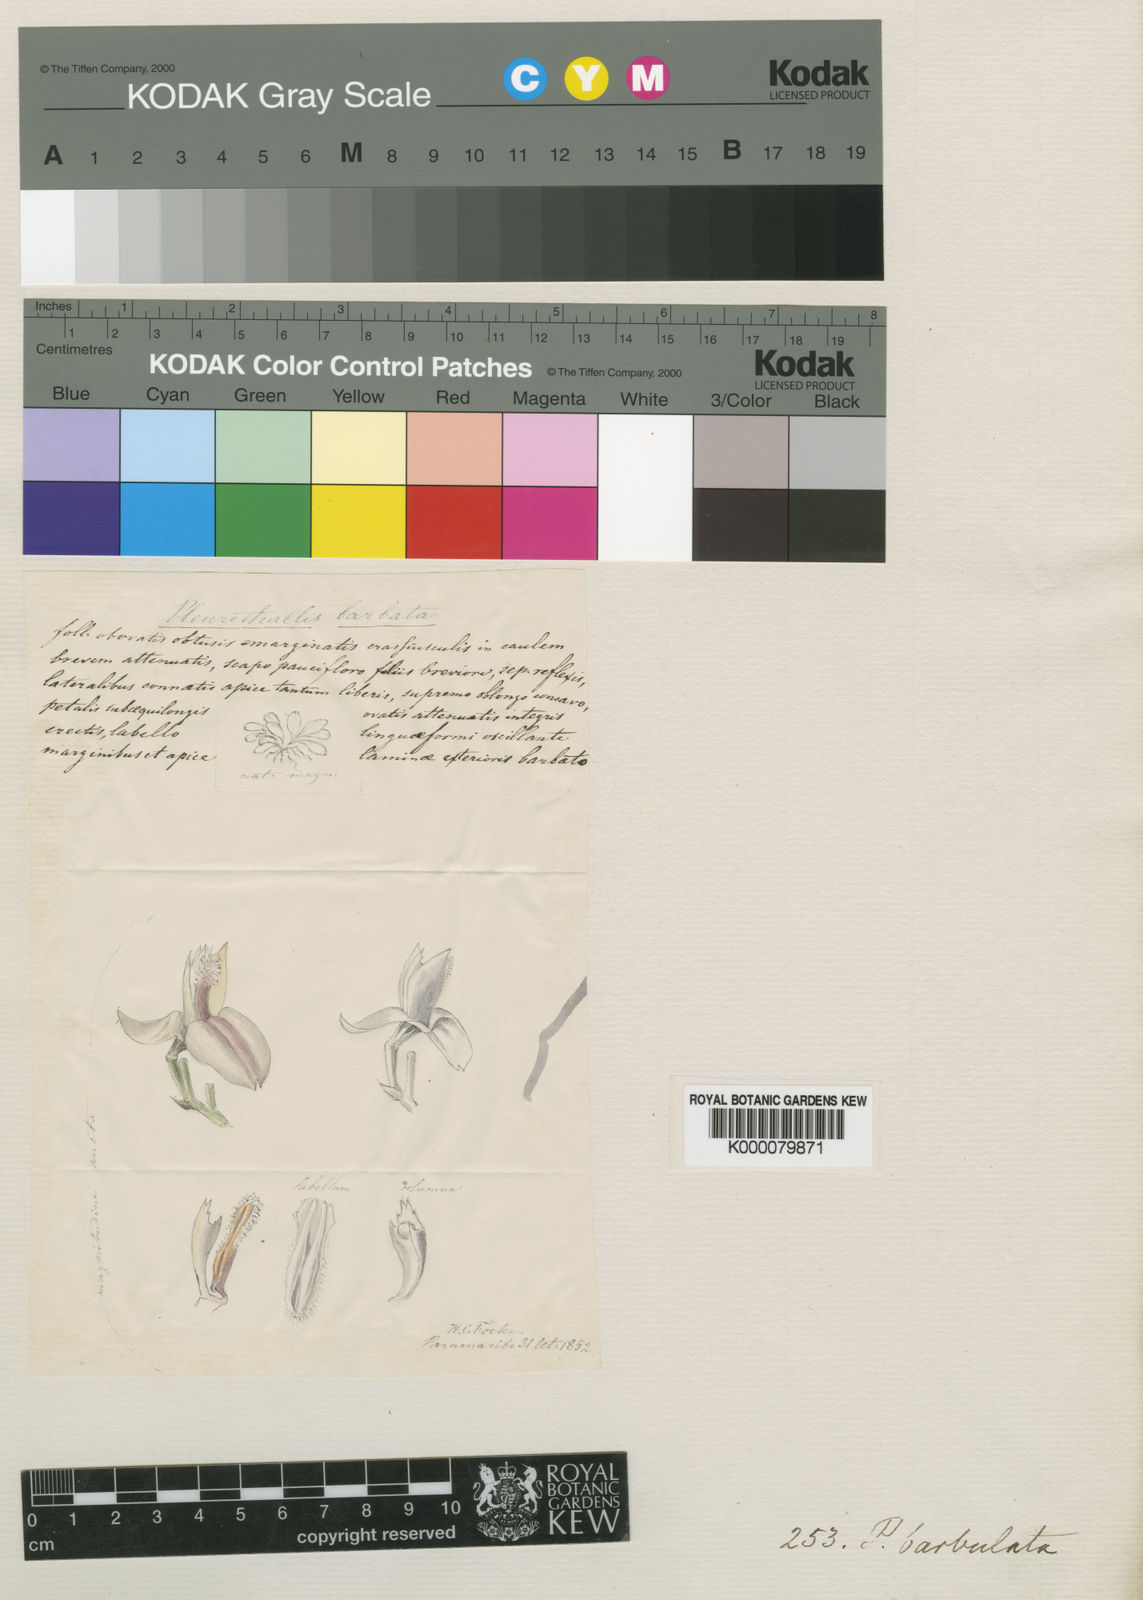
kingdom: Plantae
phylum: Tracheophyta
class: Liliopsida
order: Asparagales
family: Orchidaceae
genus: Anathallis
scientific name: Anathallis barbulata
